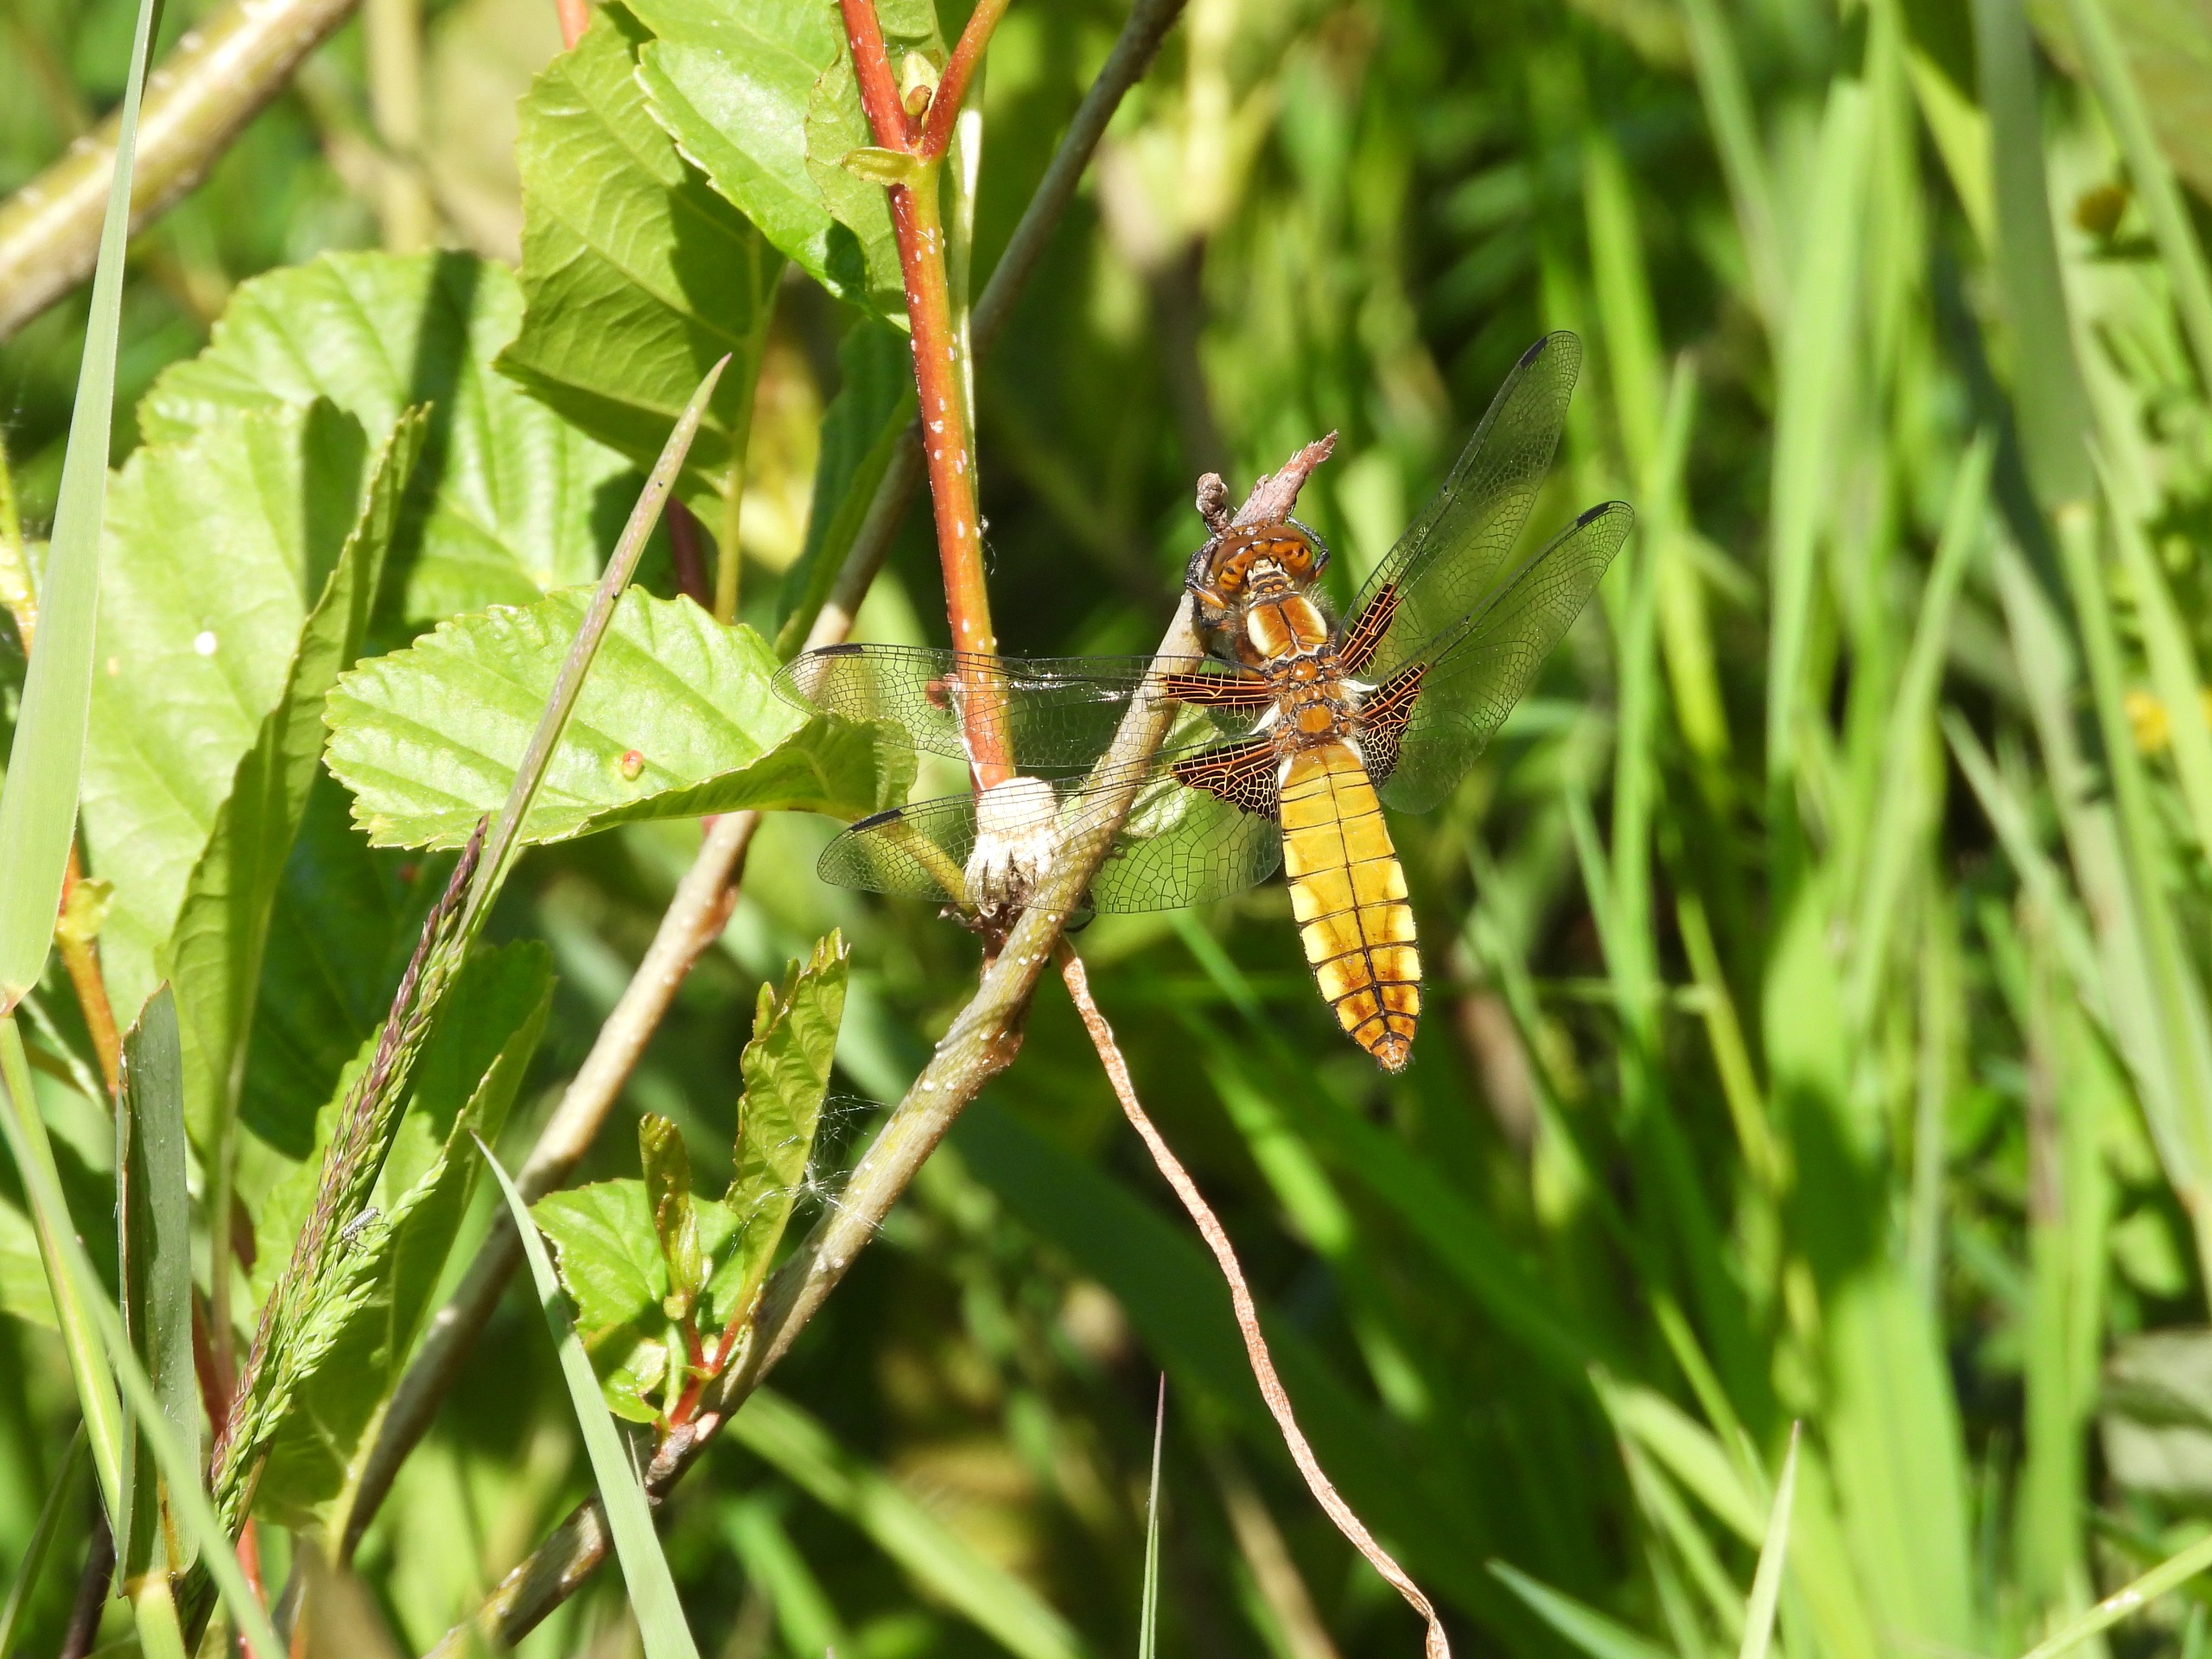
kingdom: Animalia
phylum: Arthropoda
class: Insecta
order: Odonata
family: Libellulidae
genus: Libellula
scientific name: Libellula depressa
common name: Blå libel
